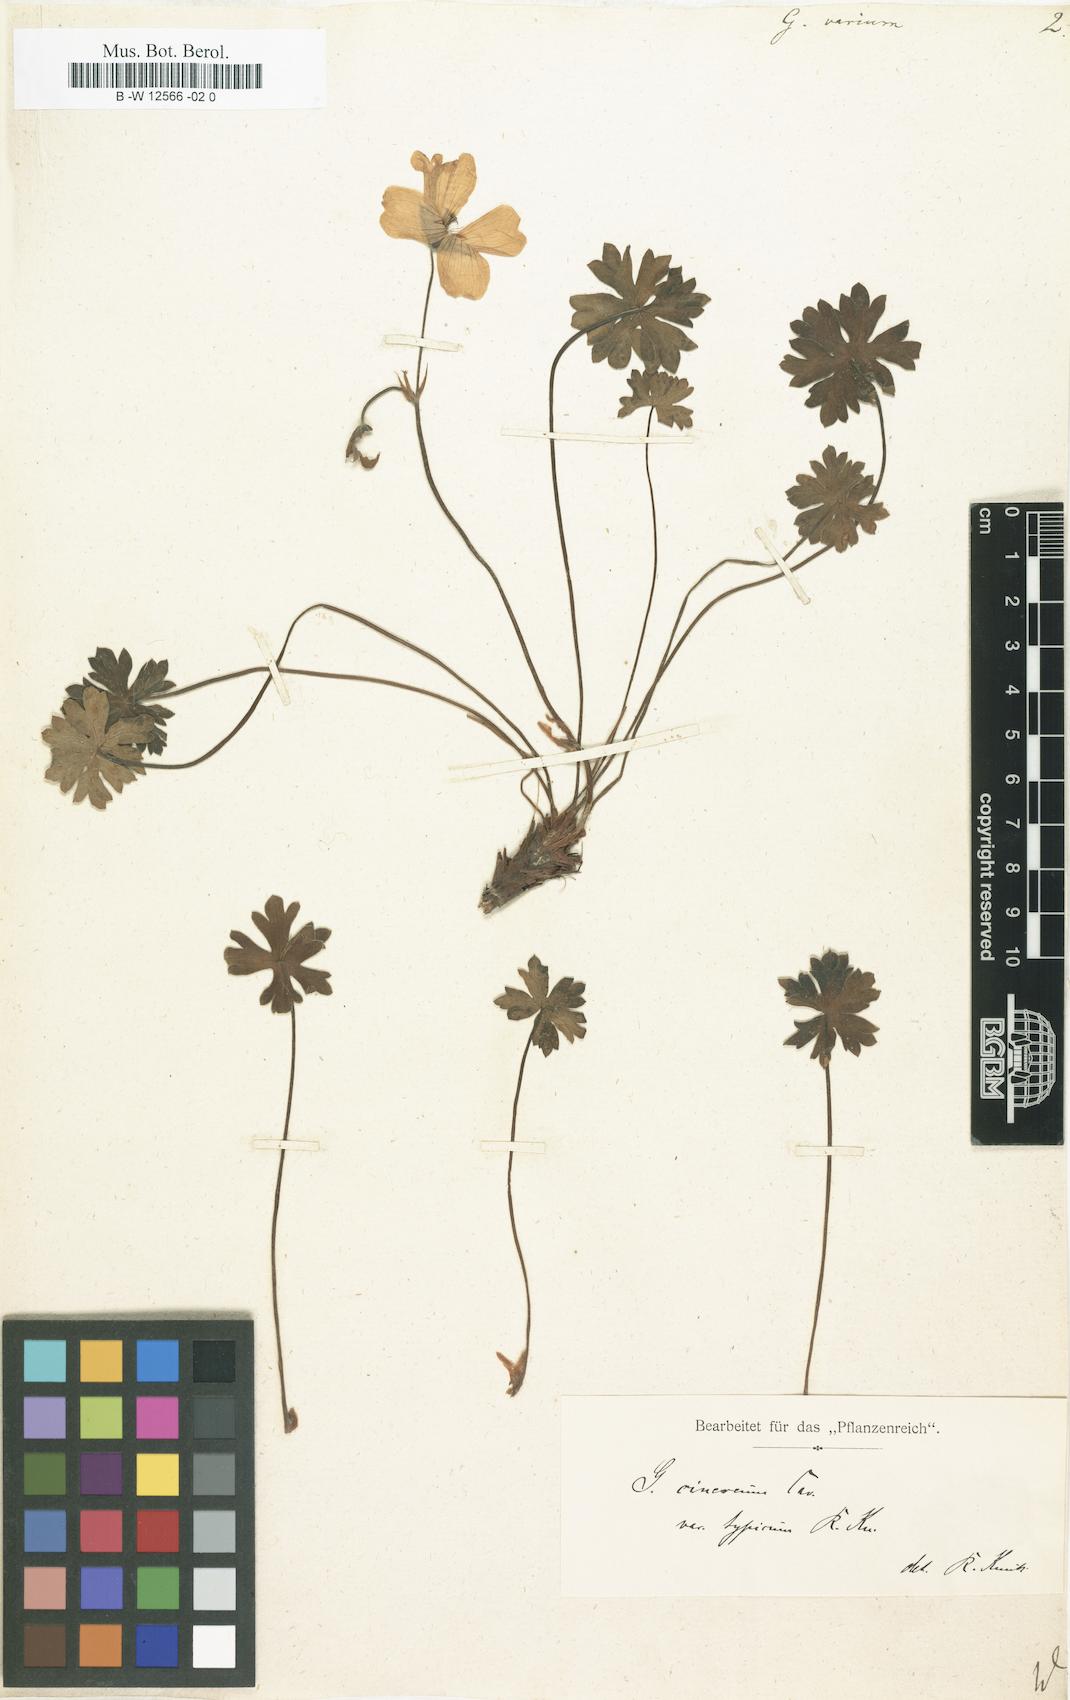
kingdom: Plantae
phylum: Tracheophyta
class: Magnoliopsida
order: Geraniales
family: Geraniaceae
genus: Geranium
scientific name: Geranium cinereum
